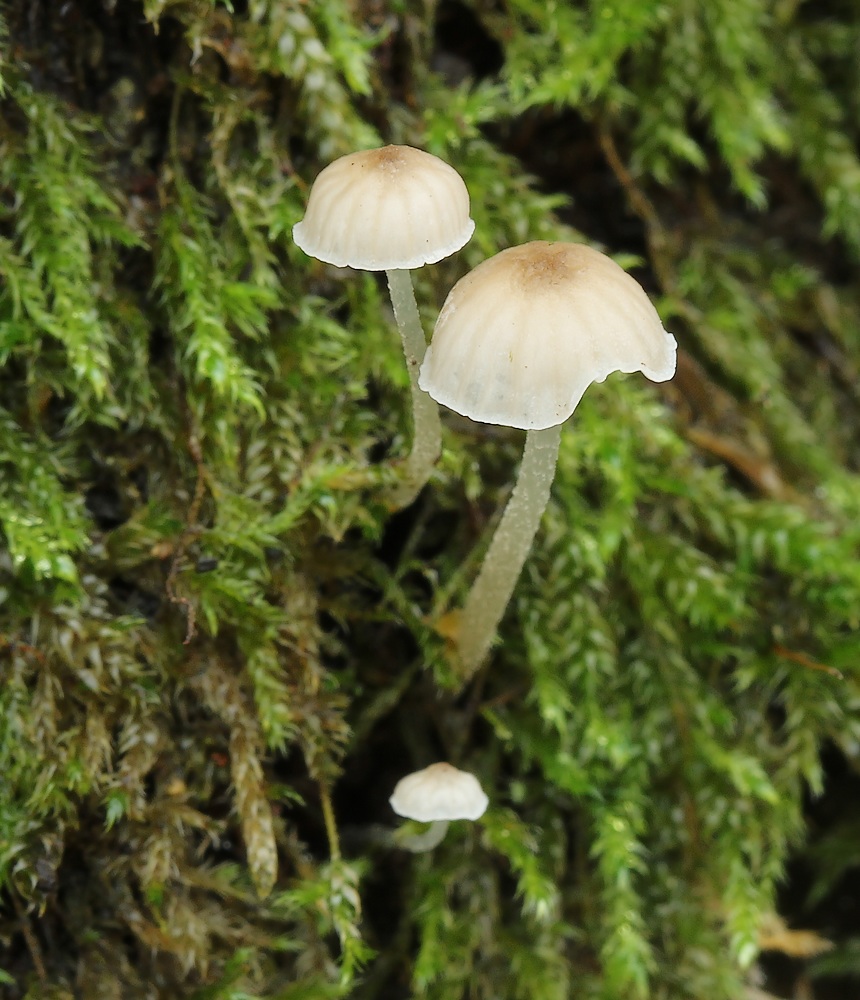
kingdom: Fungi
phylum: Basidiomycota
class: Agaricomycetes
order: Agaricales
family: Porotheleaceae
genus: Phloeomana
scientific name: Phloeomana speirea
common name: kvist-huesvamp
